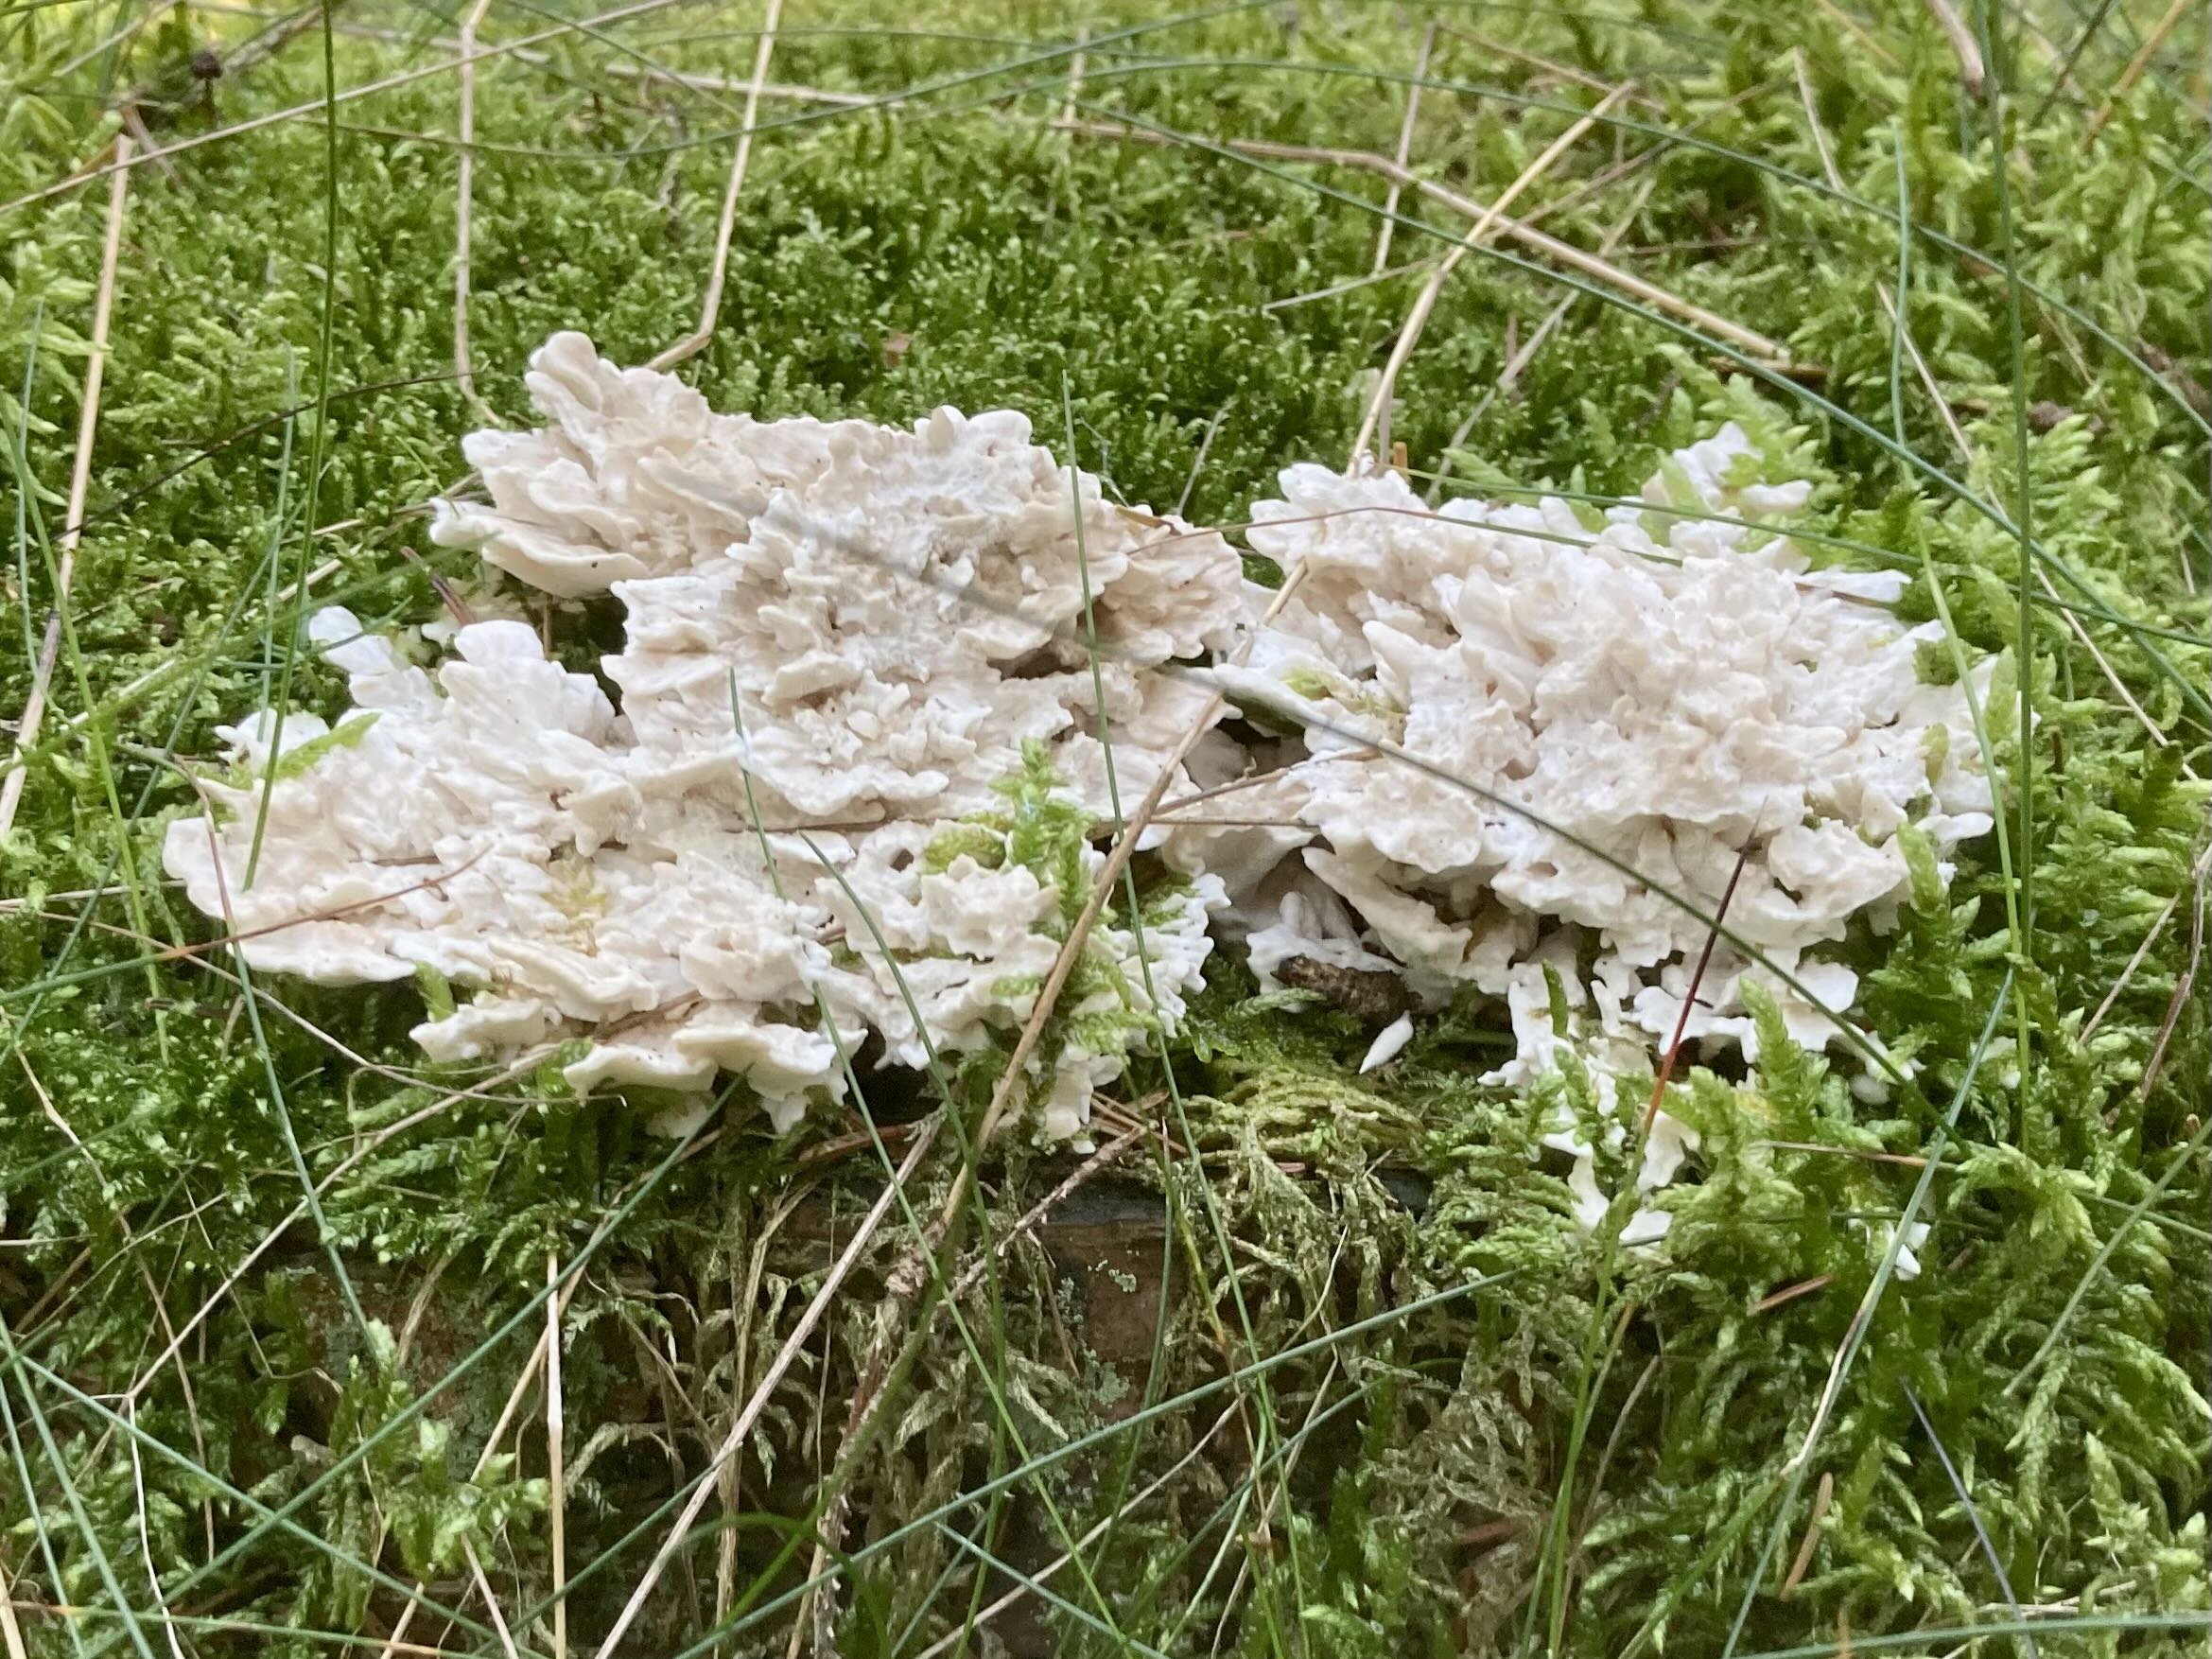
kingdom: Fungi
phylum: Basidiomycota
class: Agaricomycetes
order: Polyporales
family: Dacryobolaceae
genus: Spongiporus
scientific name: Spongiporus floriformis
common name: oprejst kødporesvamp
